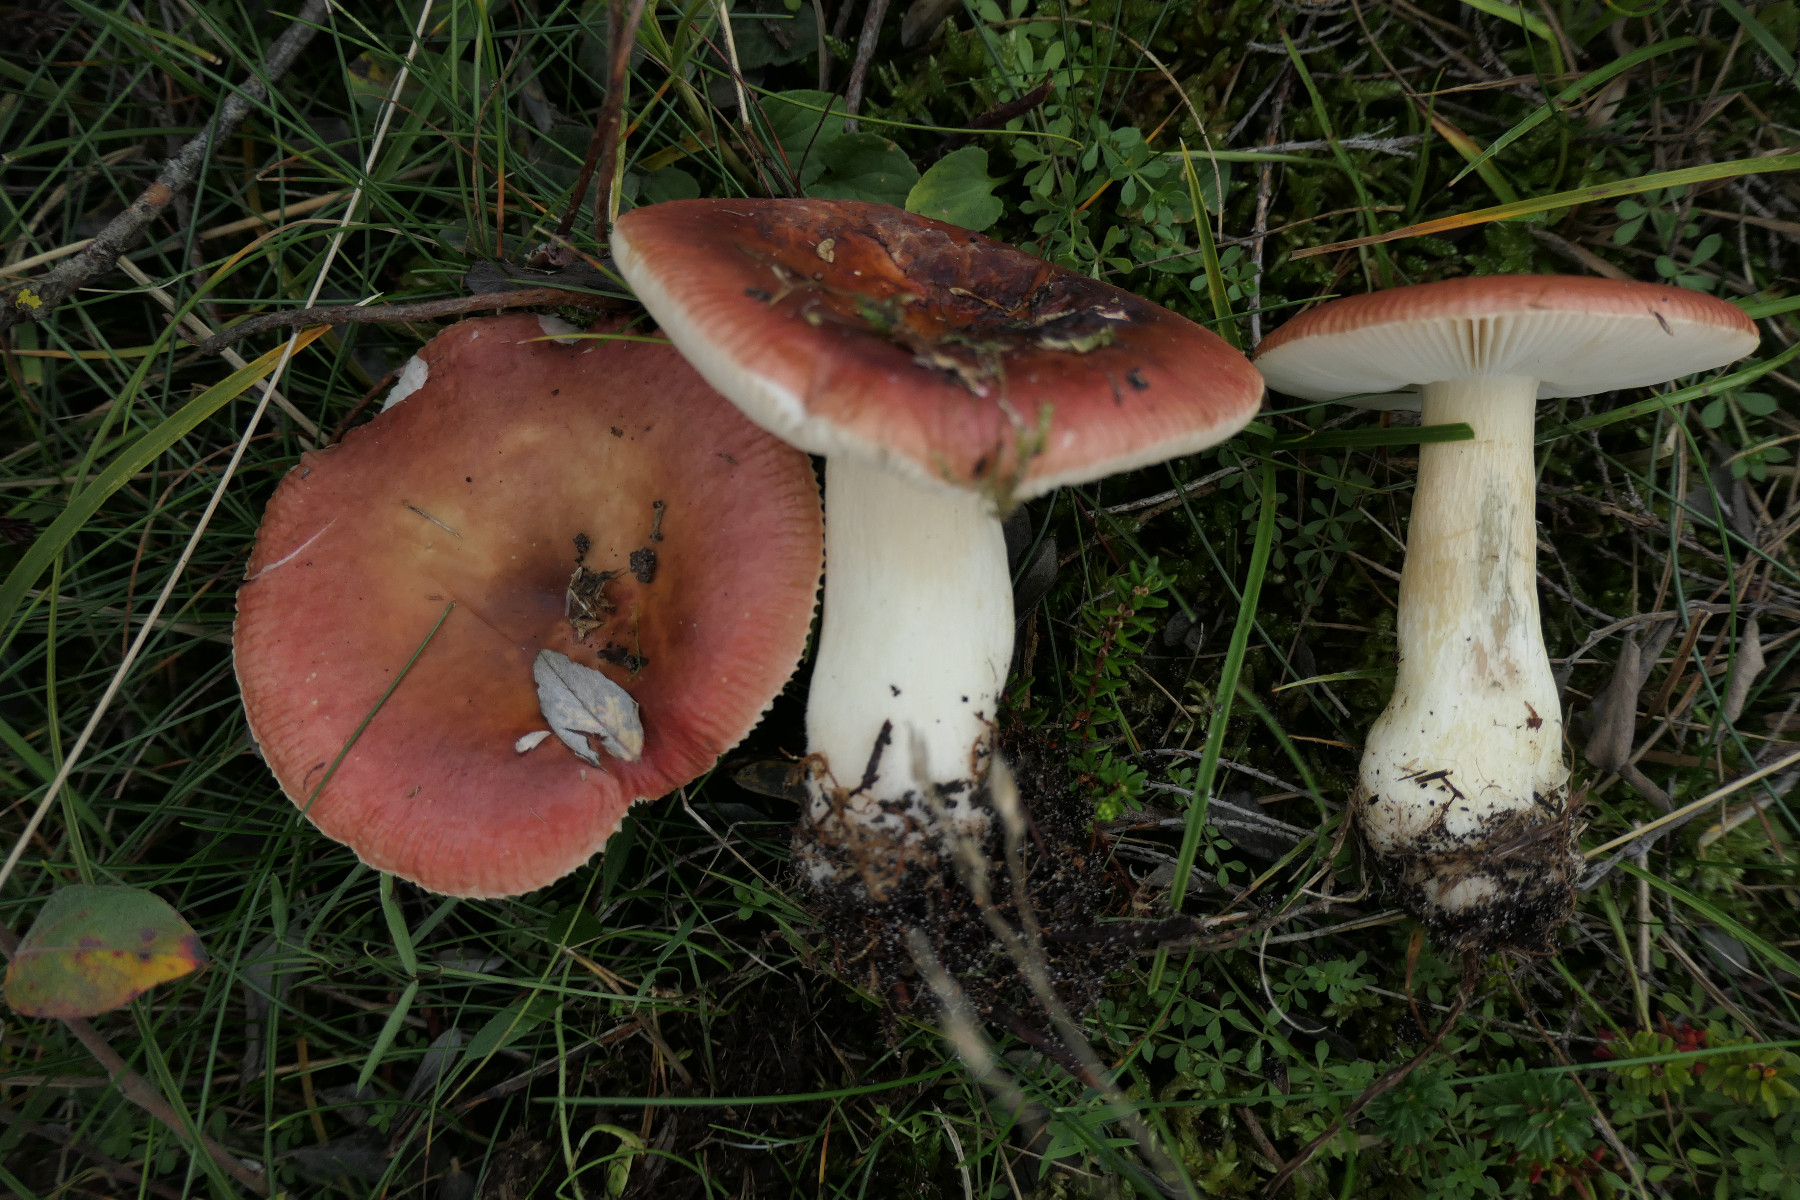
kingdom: Fungi
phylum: Basidiomycota
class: Agaricomycetes
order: Russulales
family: Russulaceae
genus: Russula
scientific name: Russula subrubens
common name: pile-skørhat
